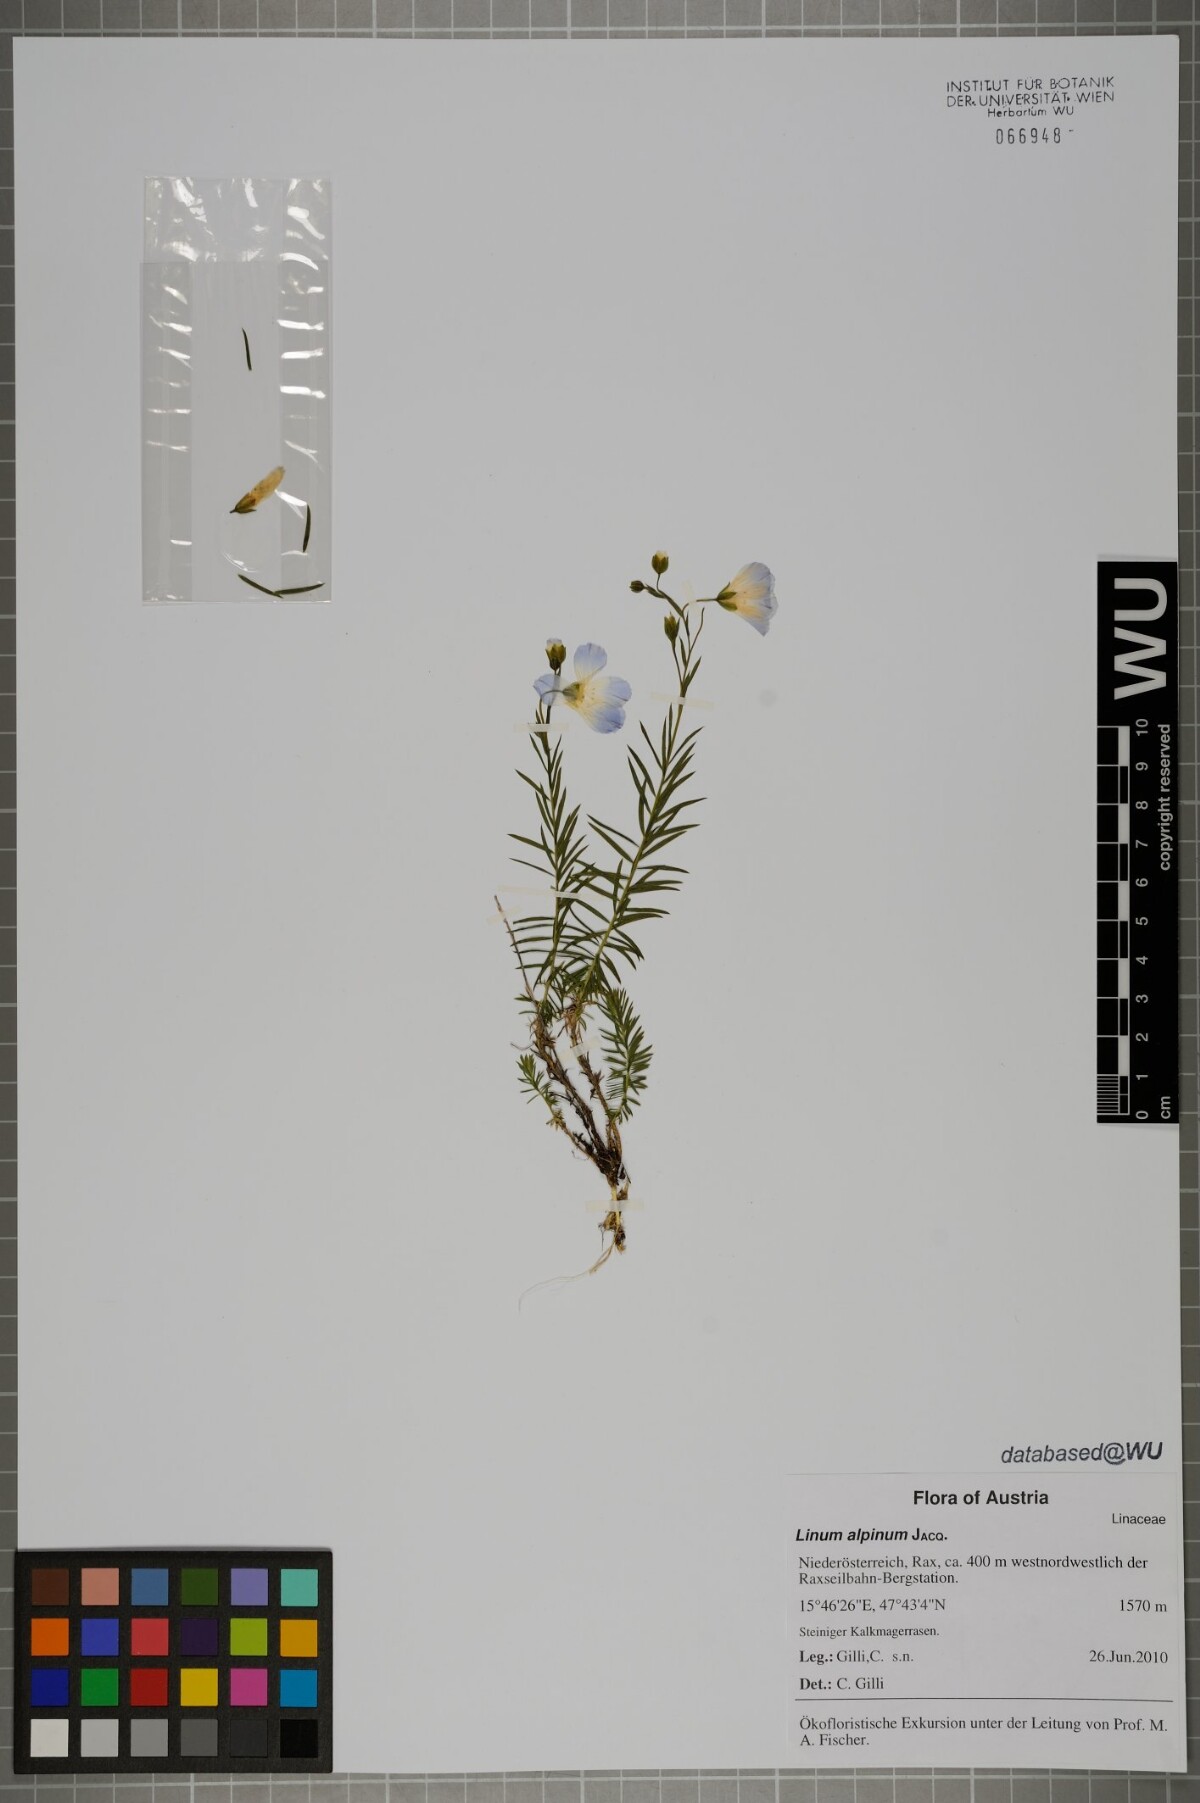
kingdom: Plantae
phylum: Tracheophyta
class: Magnoliopsida
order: Malpighiales
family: Linaceae
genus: Linum
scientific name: Linum alpinum
